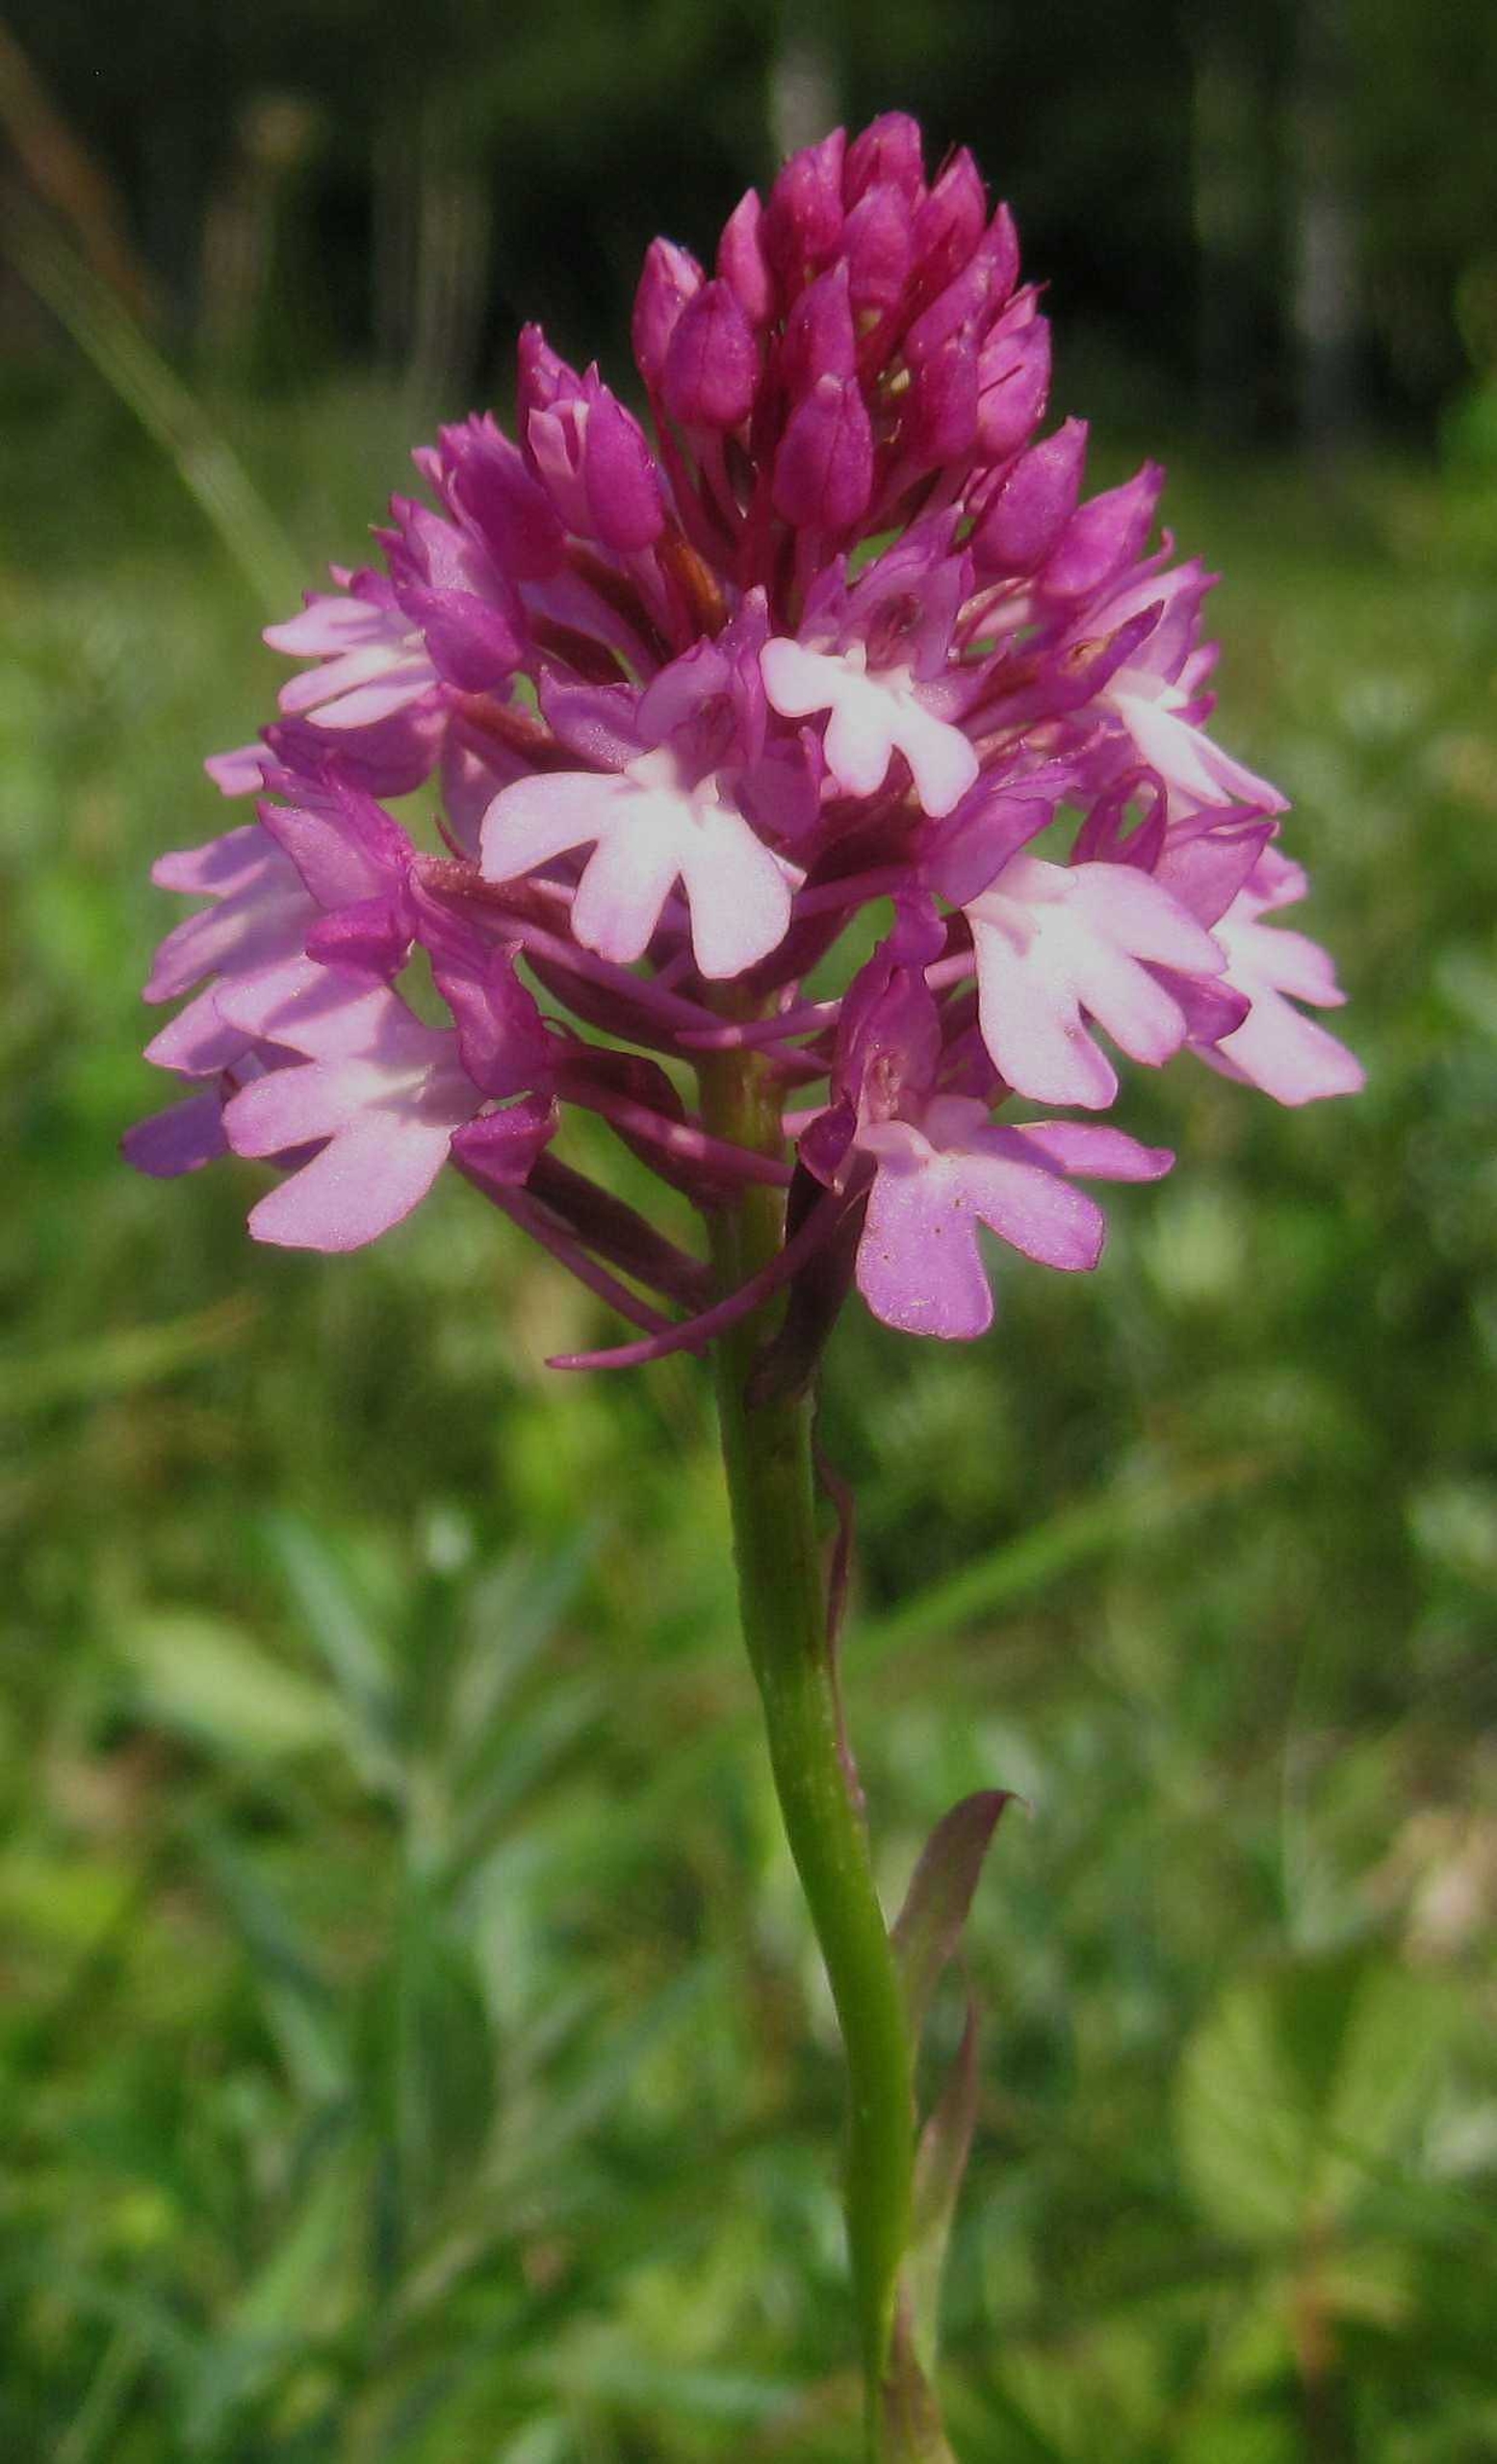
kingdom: Plantae
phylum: Tracheophyta
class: Liliopsida
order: Asparagales
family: Orchidaceae
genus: Anacamptis
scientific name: Anacamptis pyramidalis
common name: Horndrager
